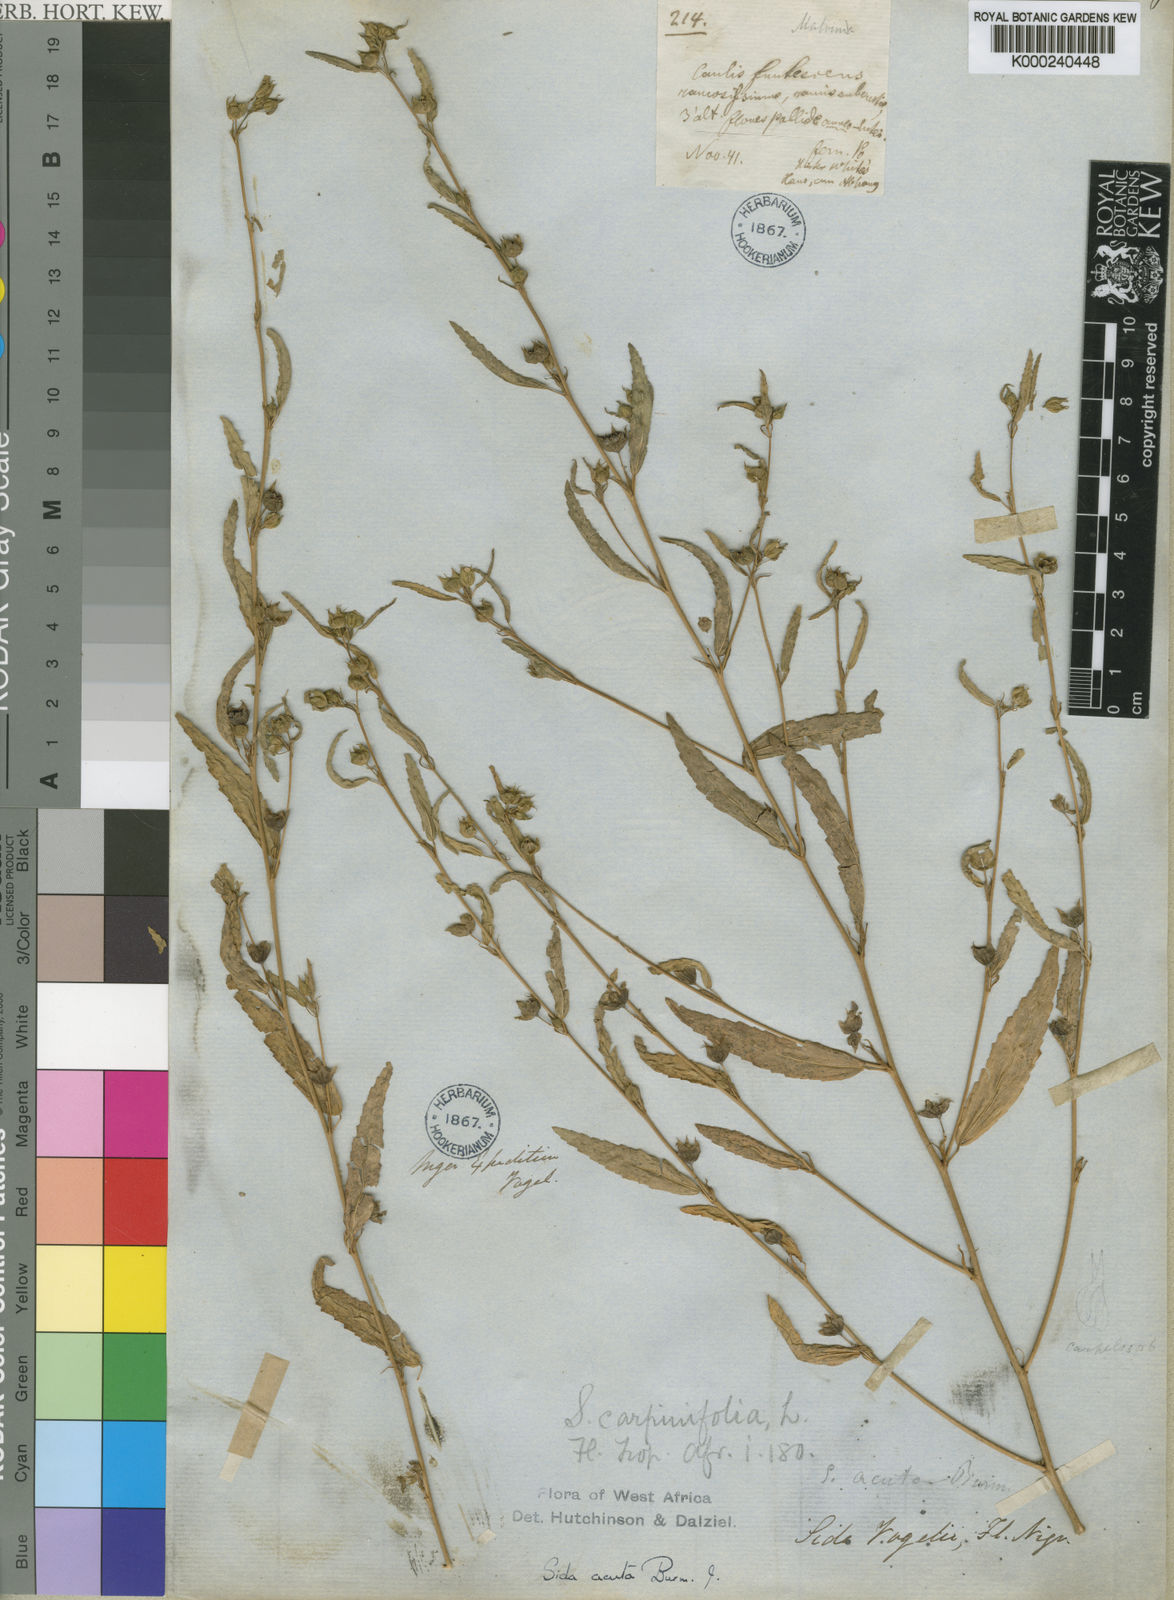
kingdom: Plantae
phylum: Tracheophyta
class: Magnoliopsida
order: Malvales
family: Malvaceae
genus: Sida
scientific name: Sida acuta
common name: Common wireweed
